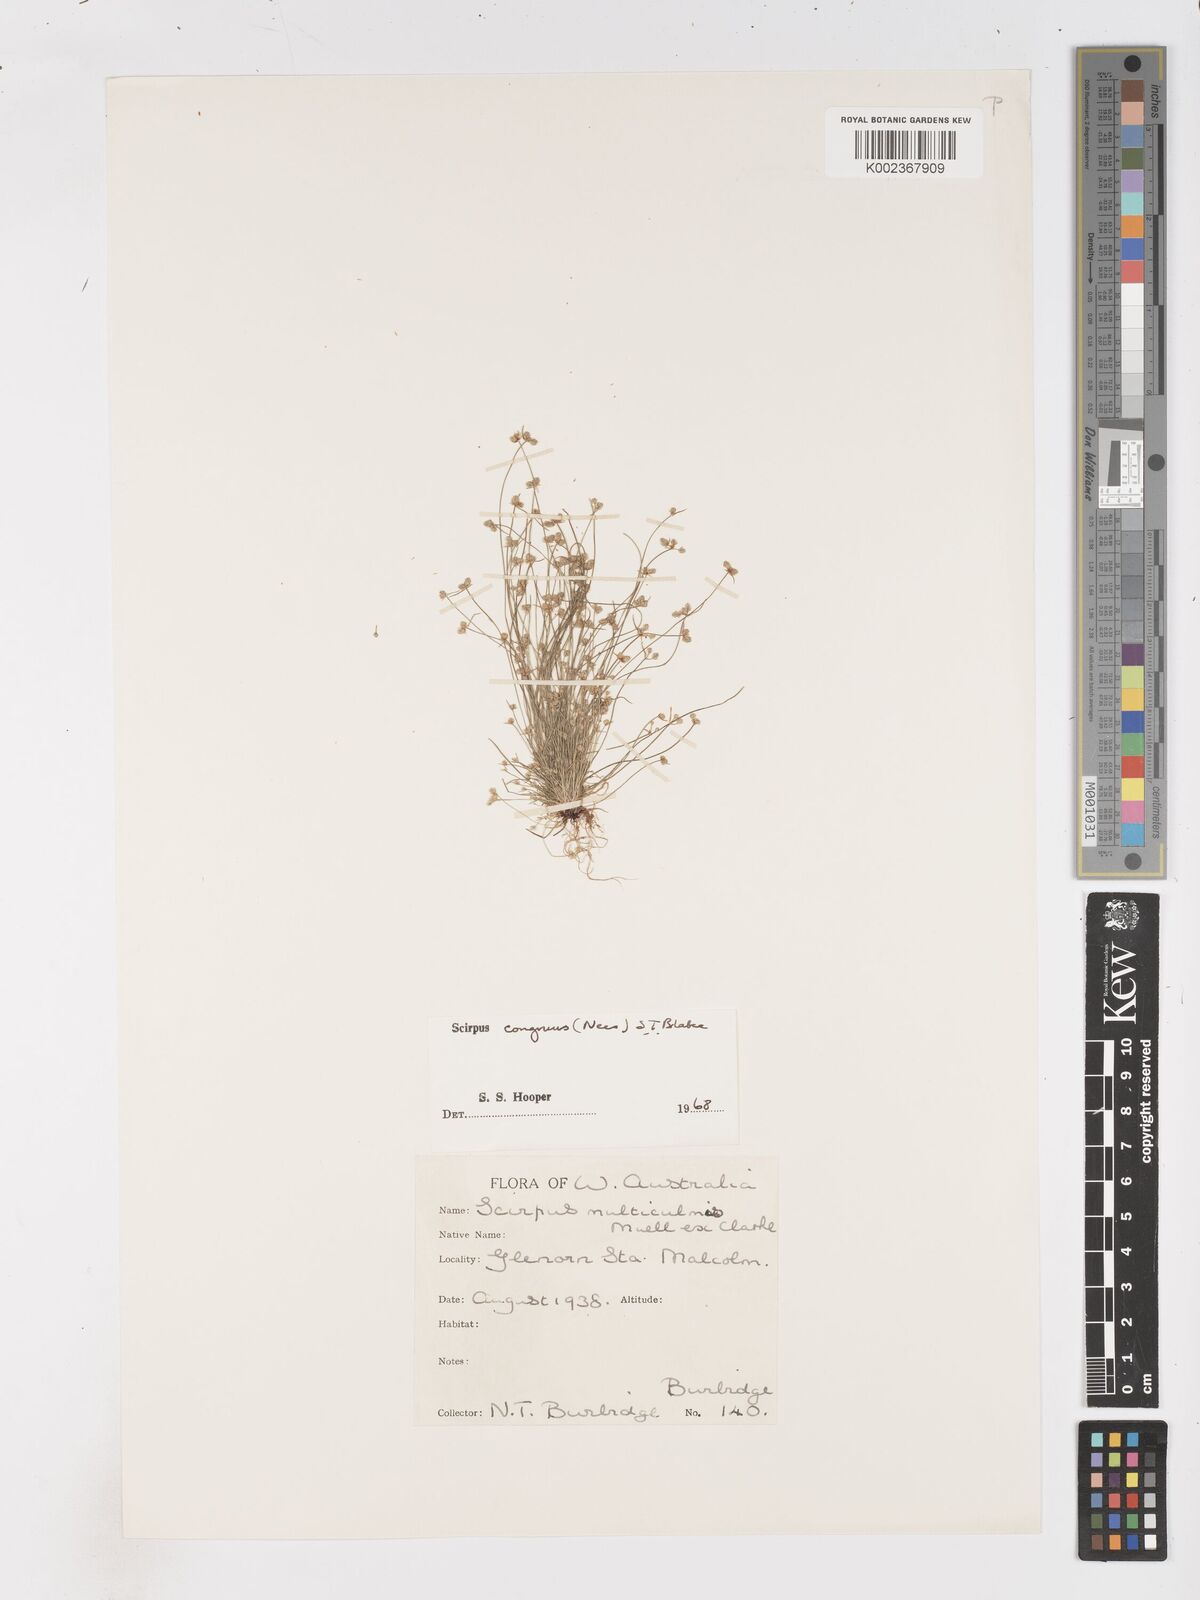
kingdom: Plantae
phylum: Tracheophyta
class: Liliopsida
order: Poales
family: Cyperaceae
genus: Isolepis
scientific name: Isolepis congrua
